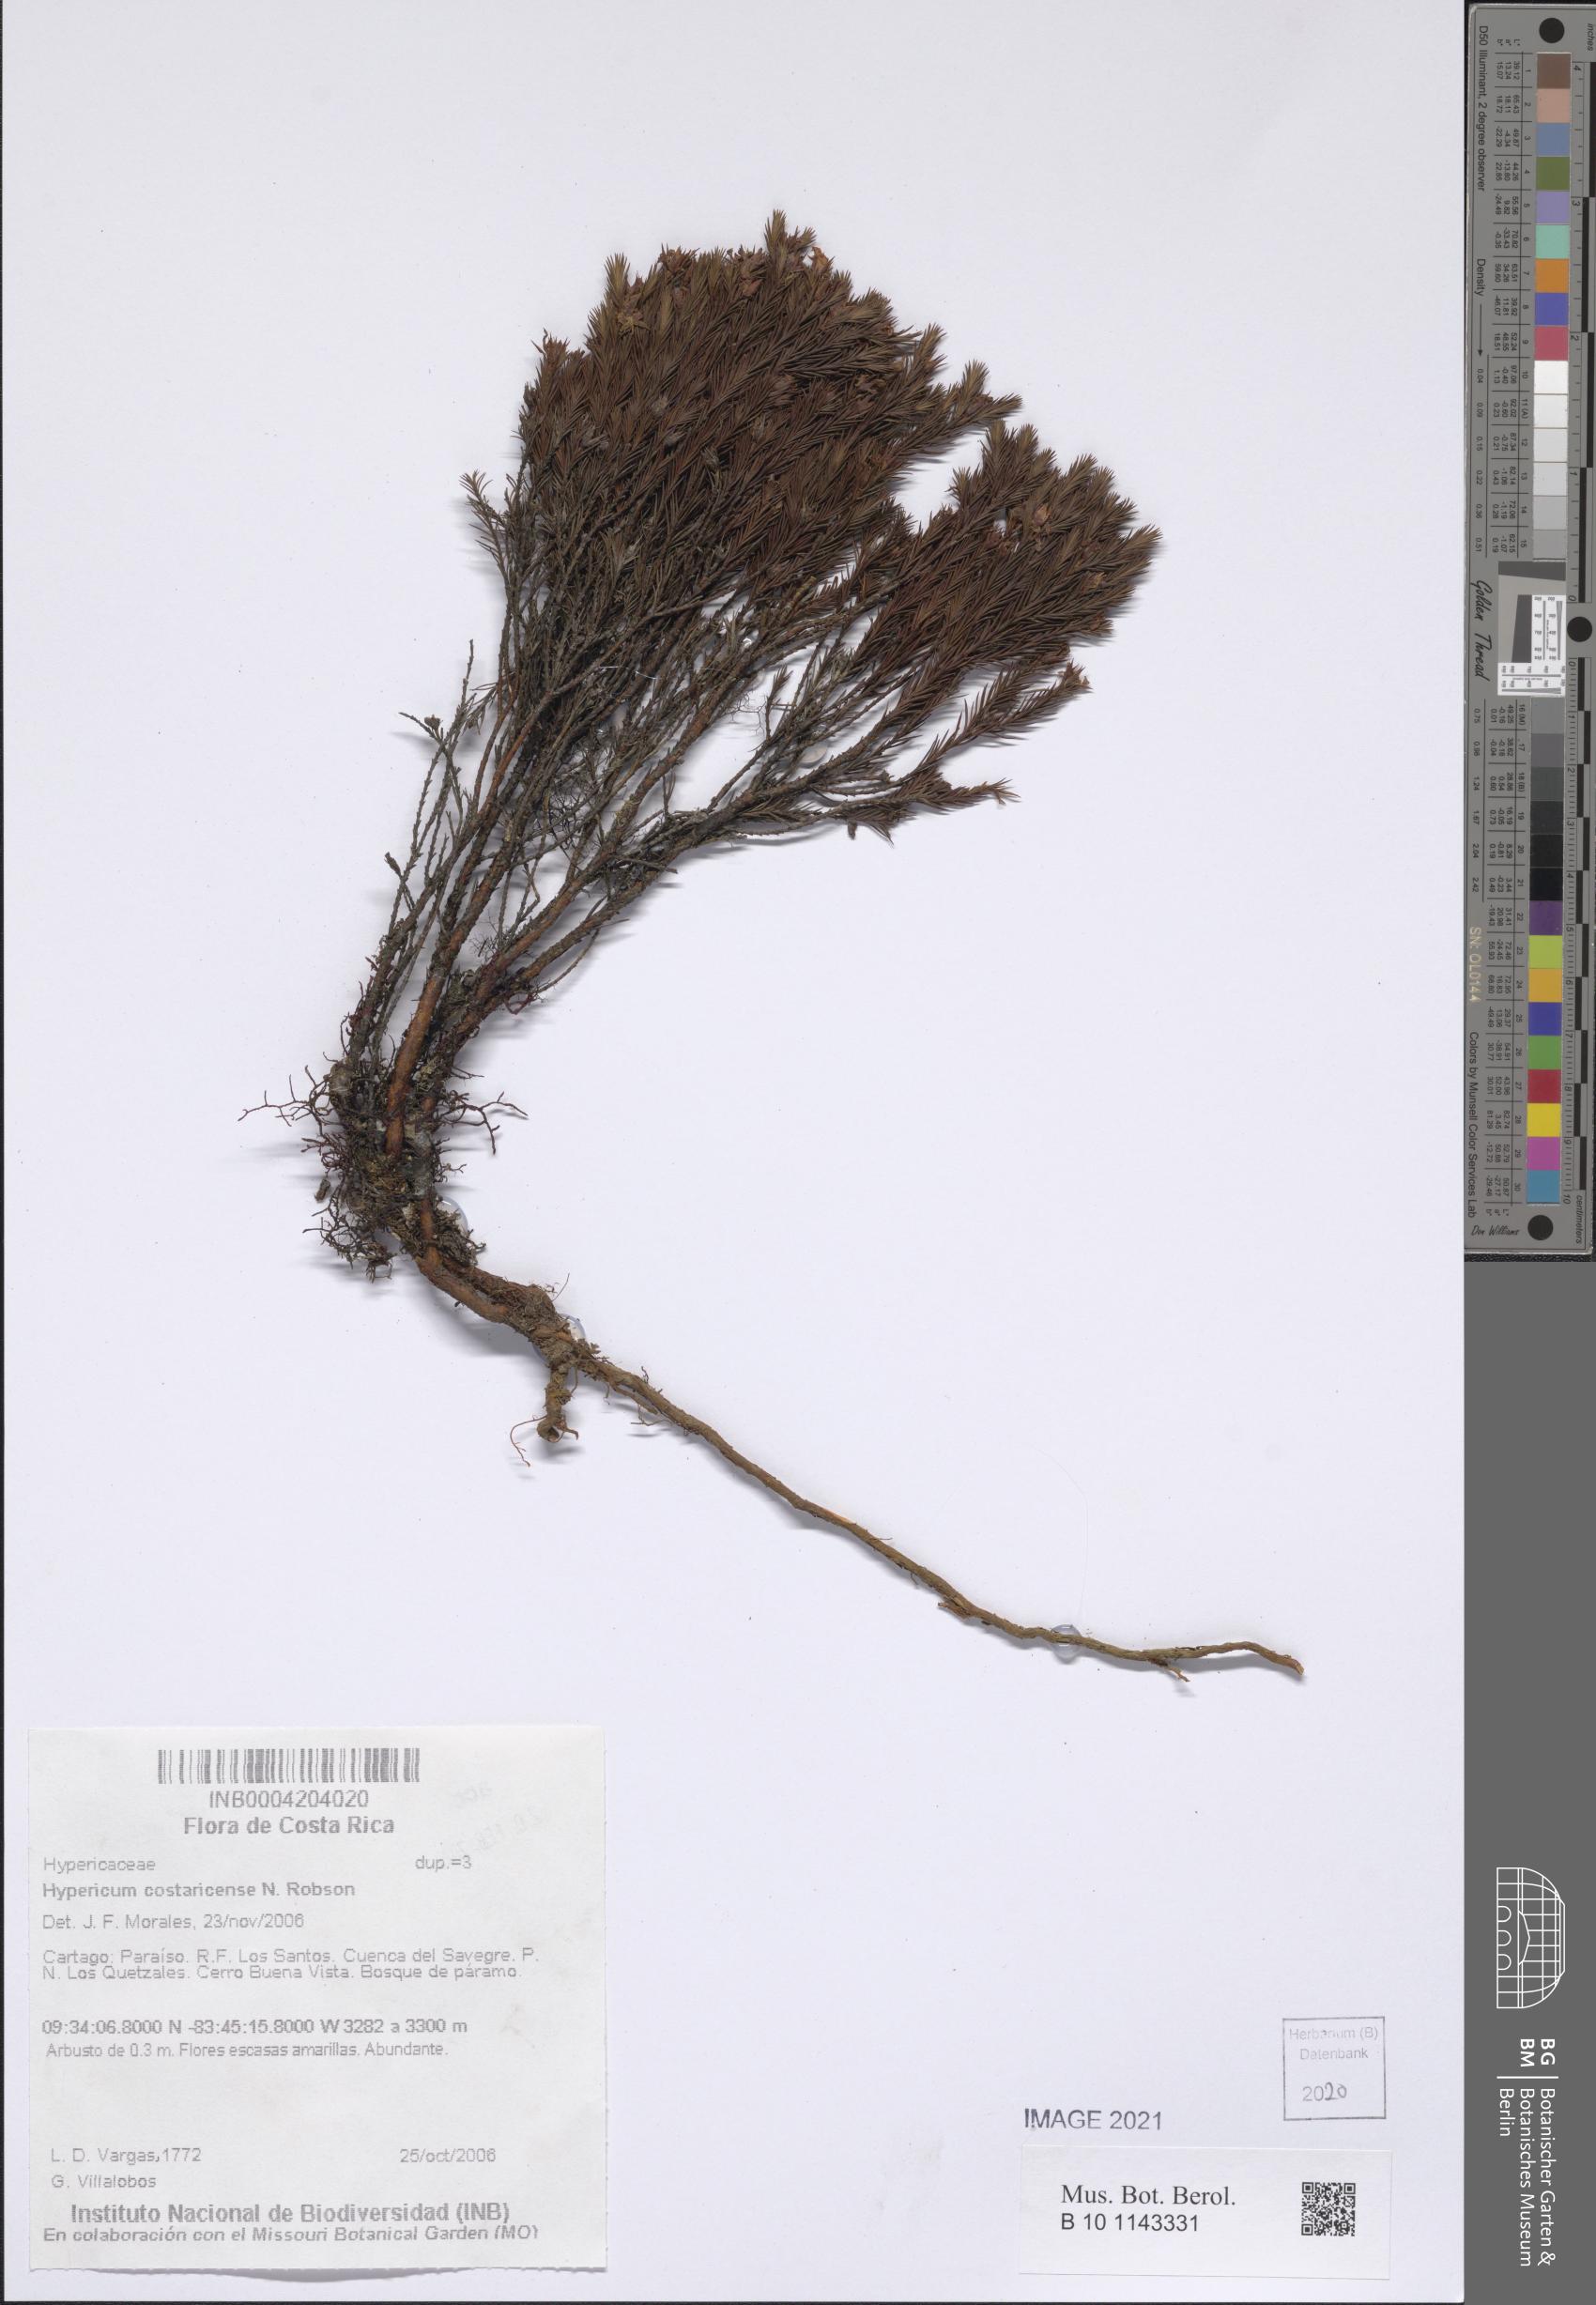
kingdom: Plantae
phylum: Tracheophyta
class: Magnoliopsida
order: Malpighiales
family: Hypericaceae
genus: Hypericum
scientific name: Hypericum costaricense
